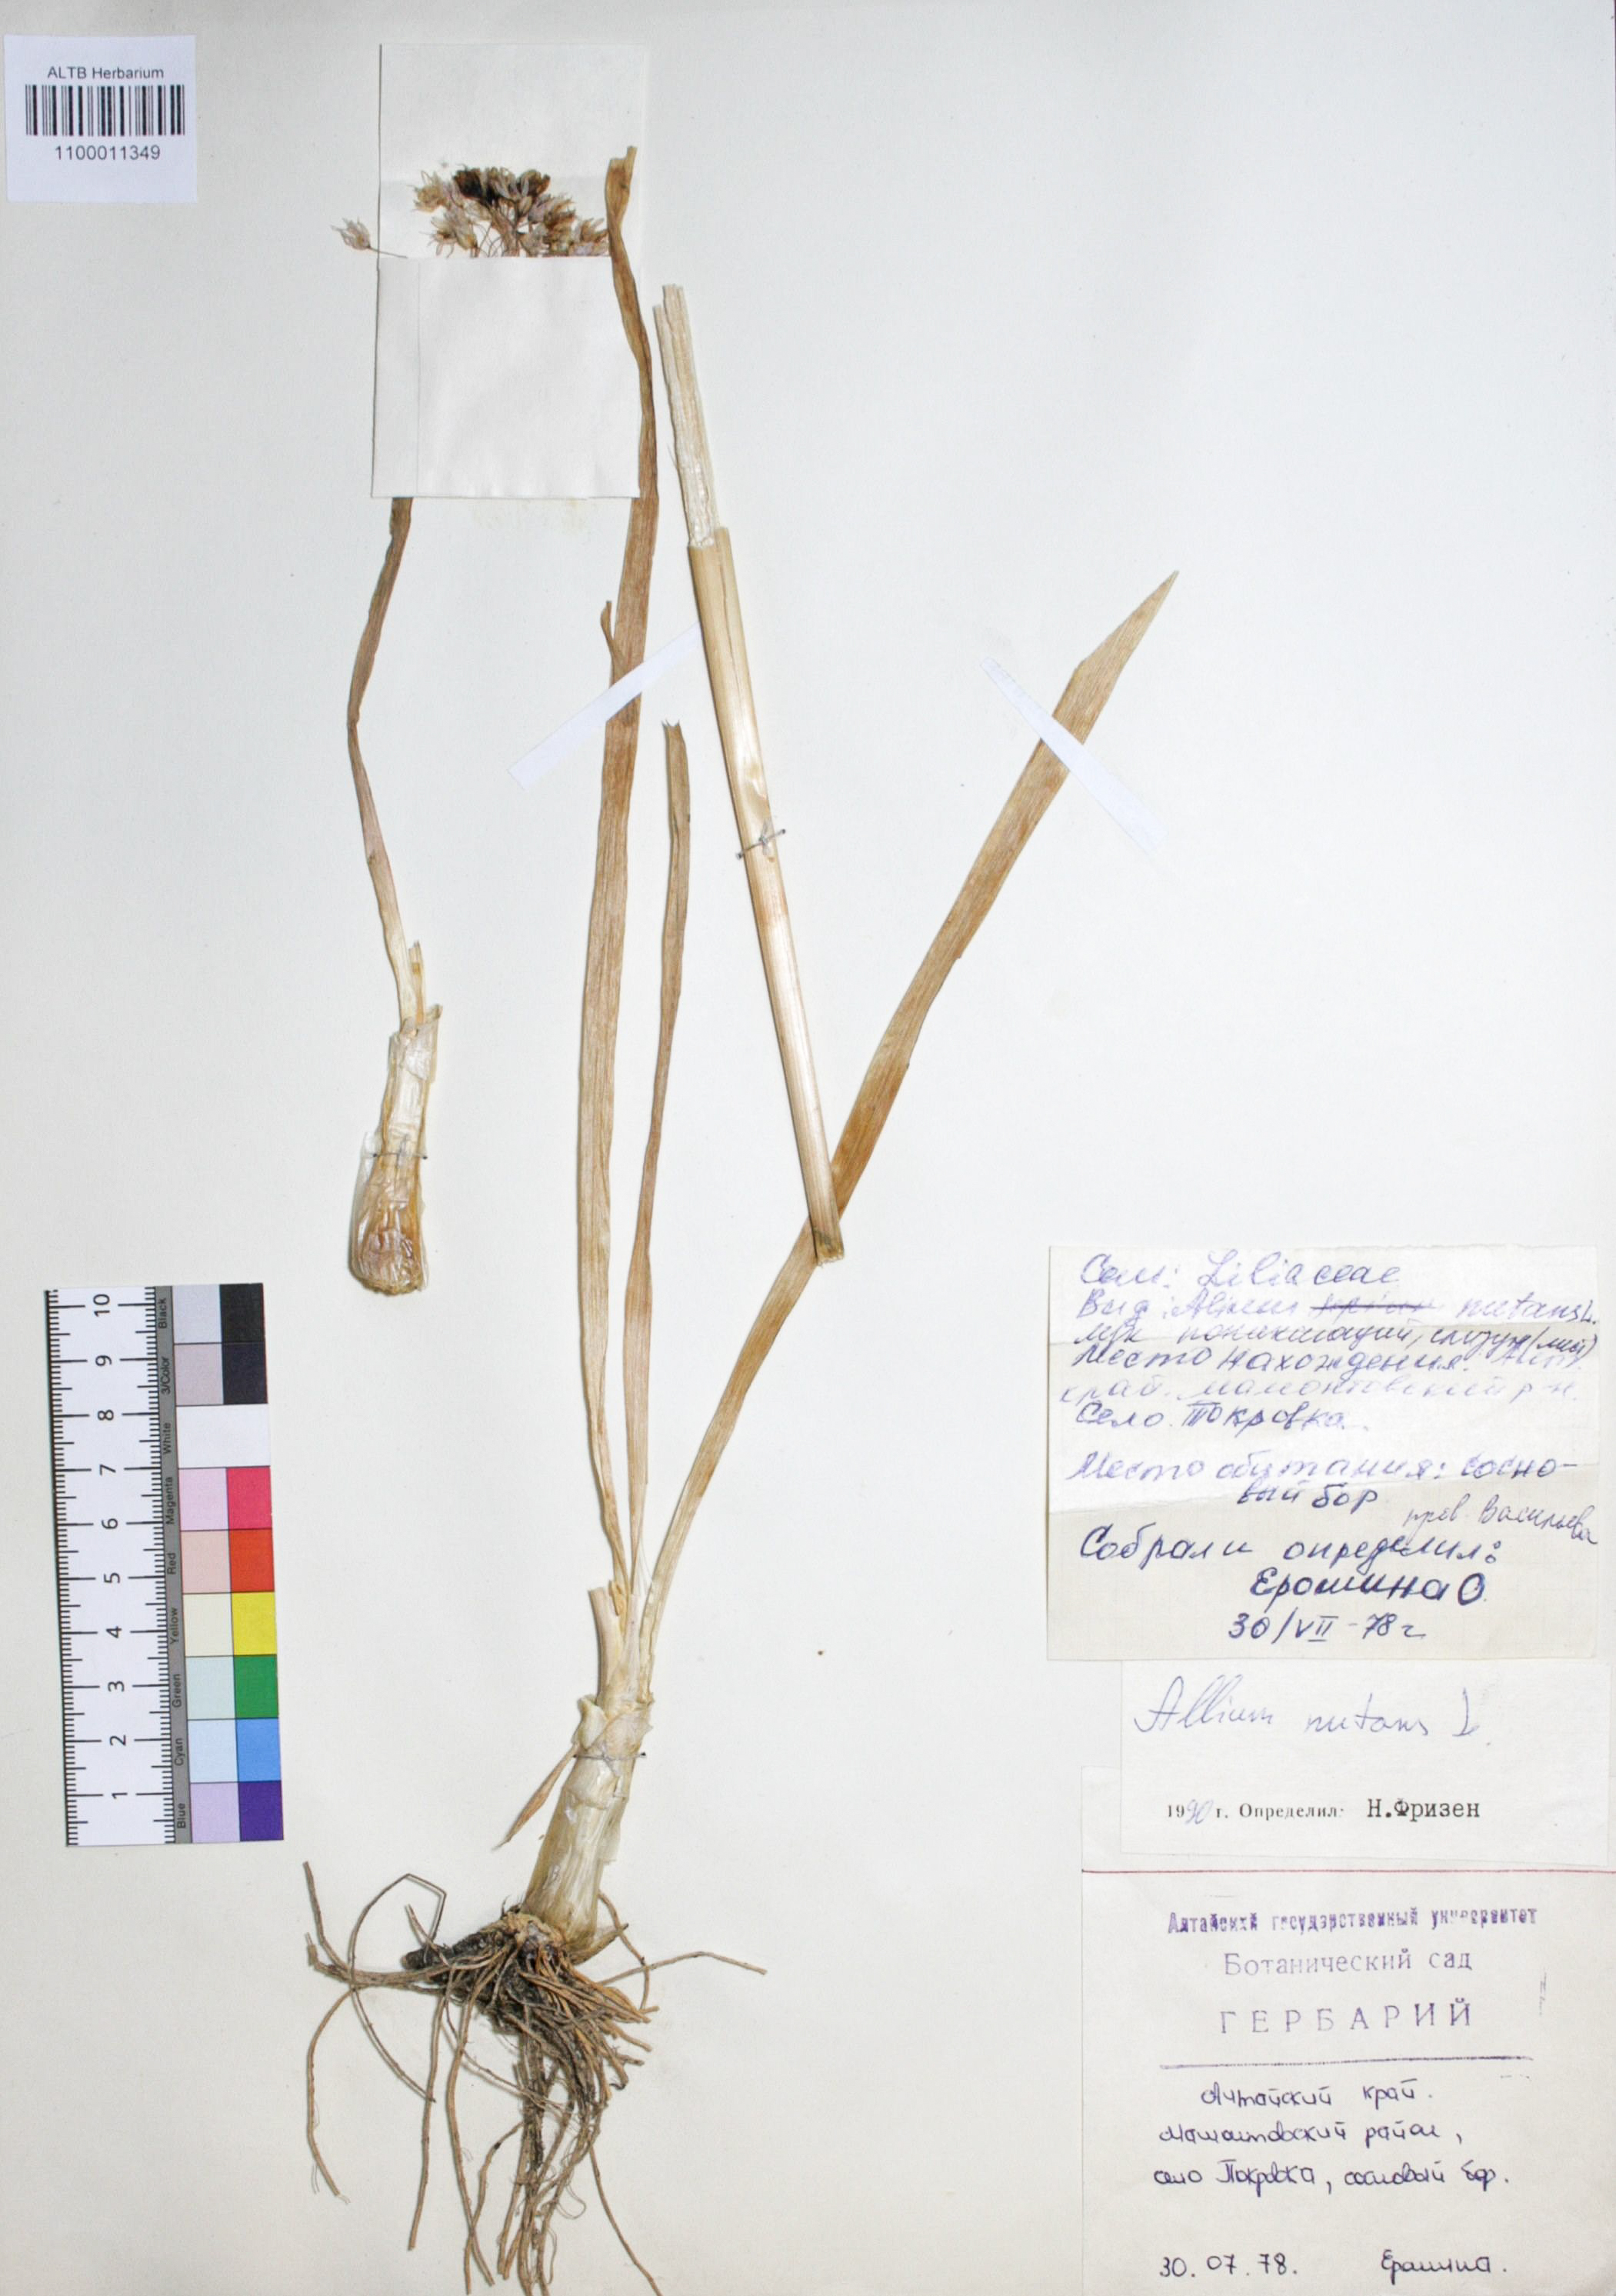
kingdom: Plantae
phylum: Tracheophyta
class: Liliopsida
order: Asparagales
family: Amaryllidaceae
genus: Allium
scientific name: Allium nutans
